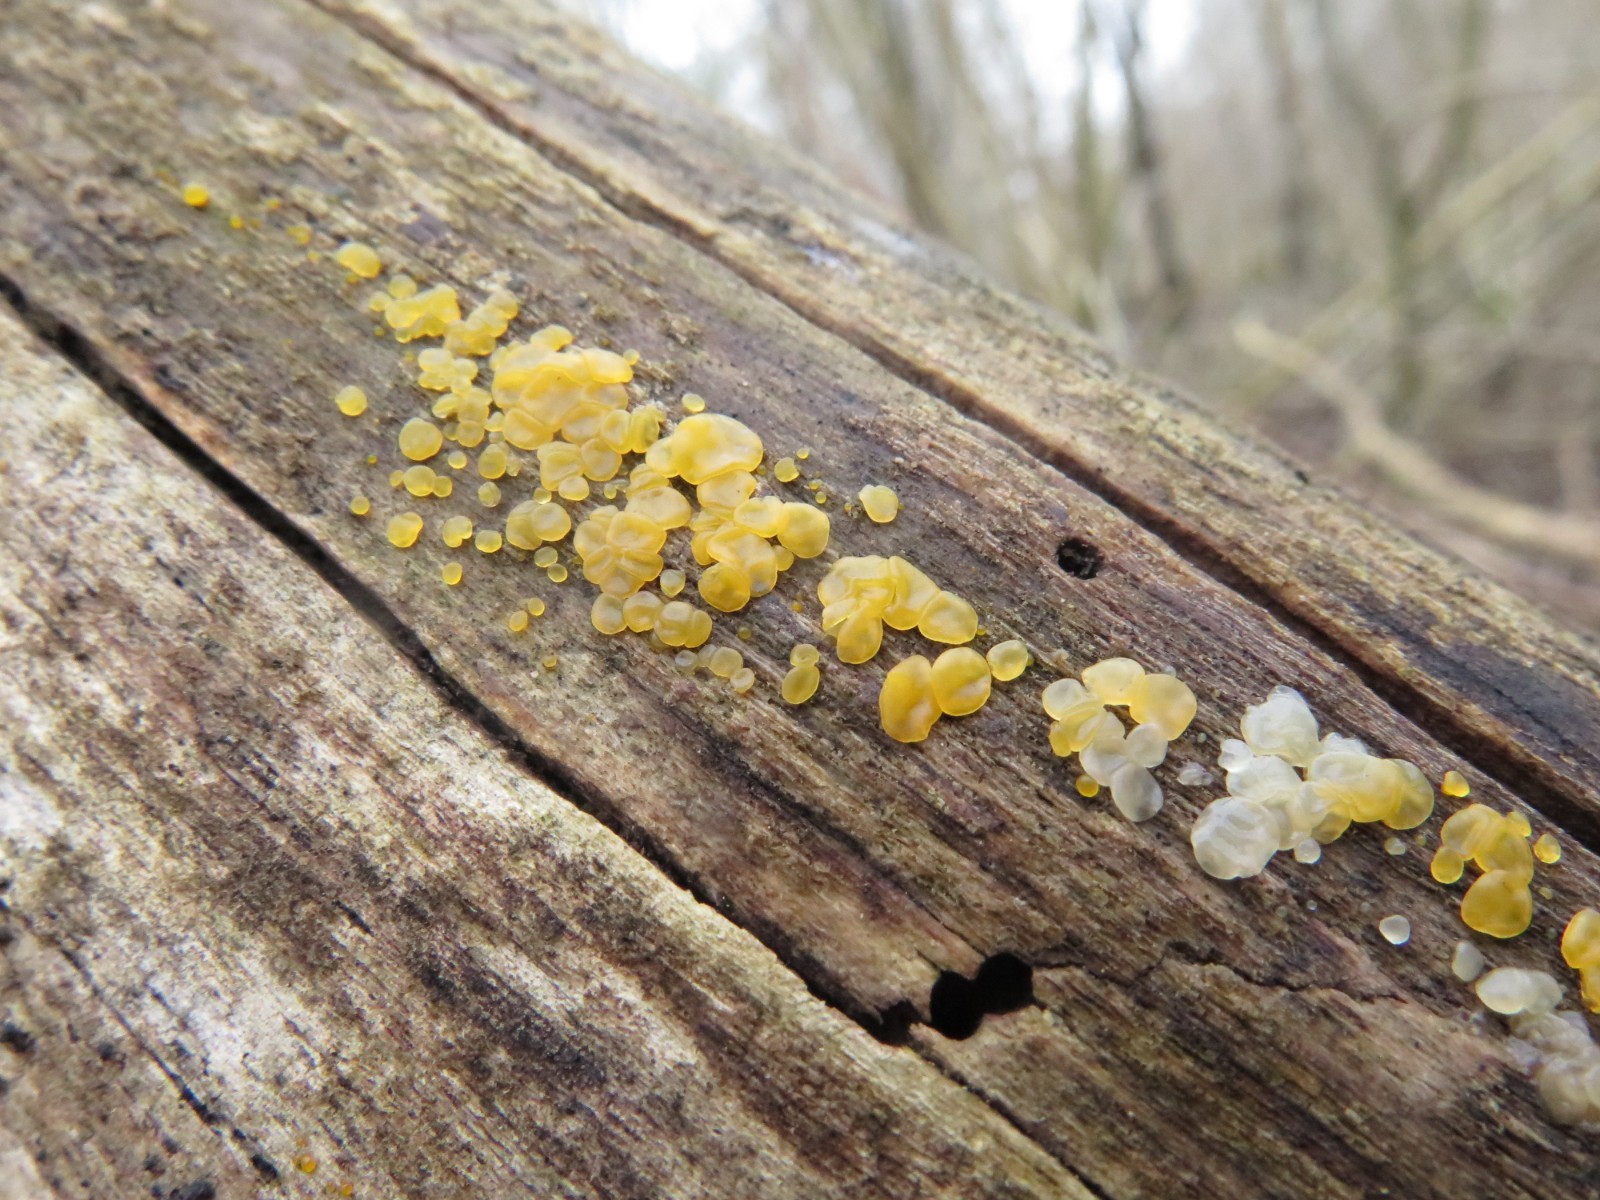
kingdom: Fungi
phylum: Basidiomycota
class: Dacrymycetes
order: Dacrymycetales
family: Dacrymycetaceae
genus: Dacrymyces
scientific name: Dacrymyces stillatus
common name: almindelig tåresvamp
